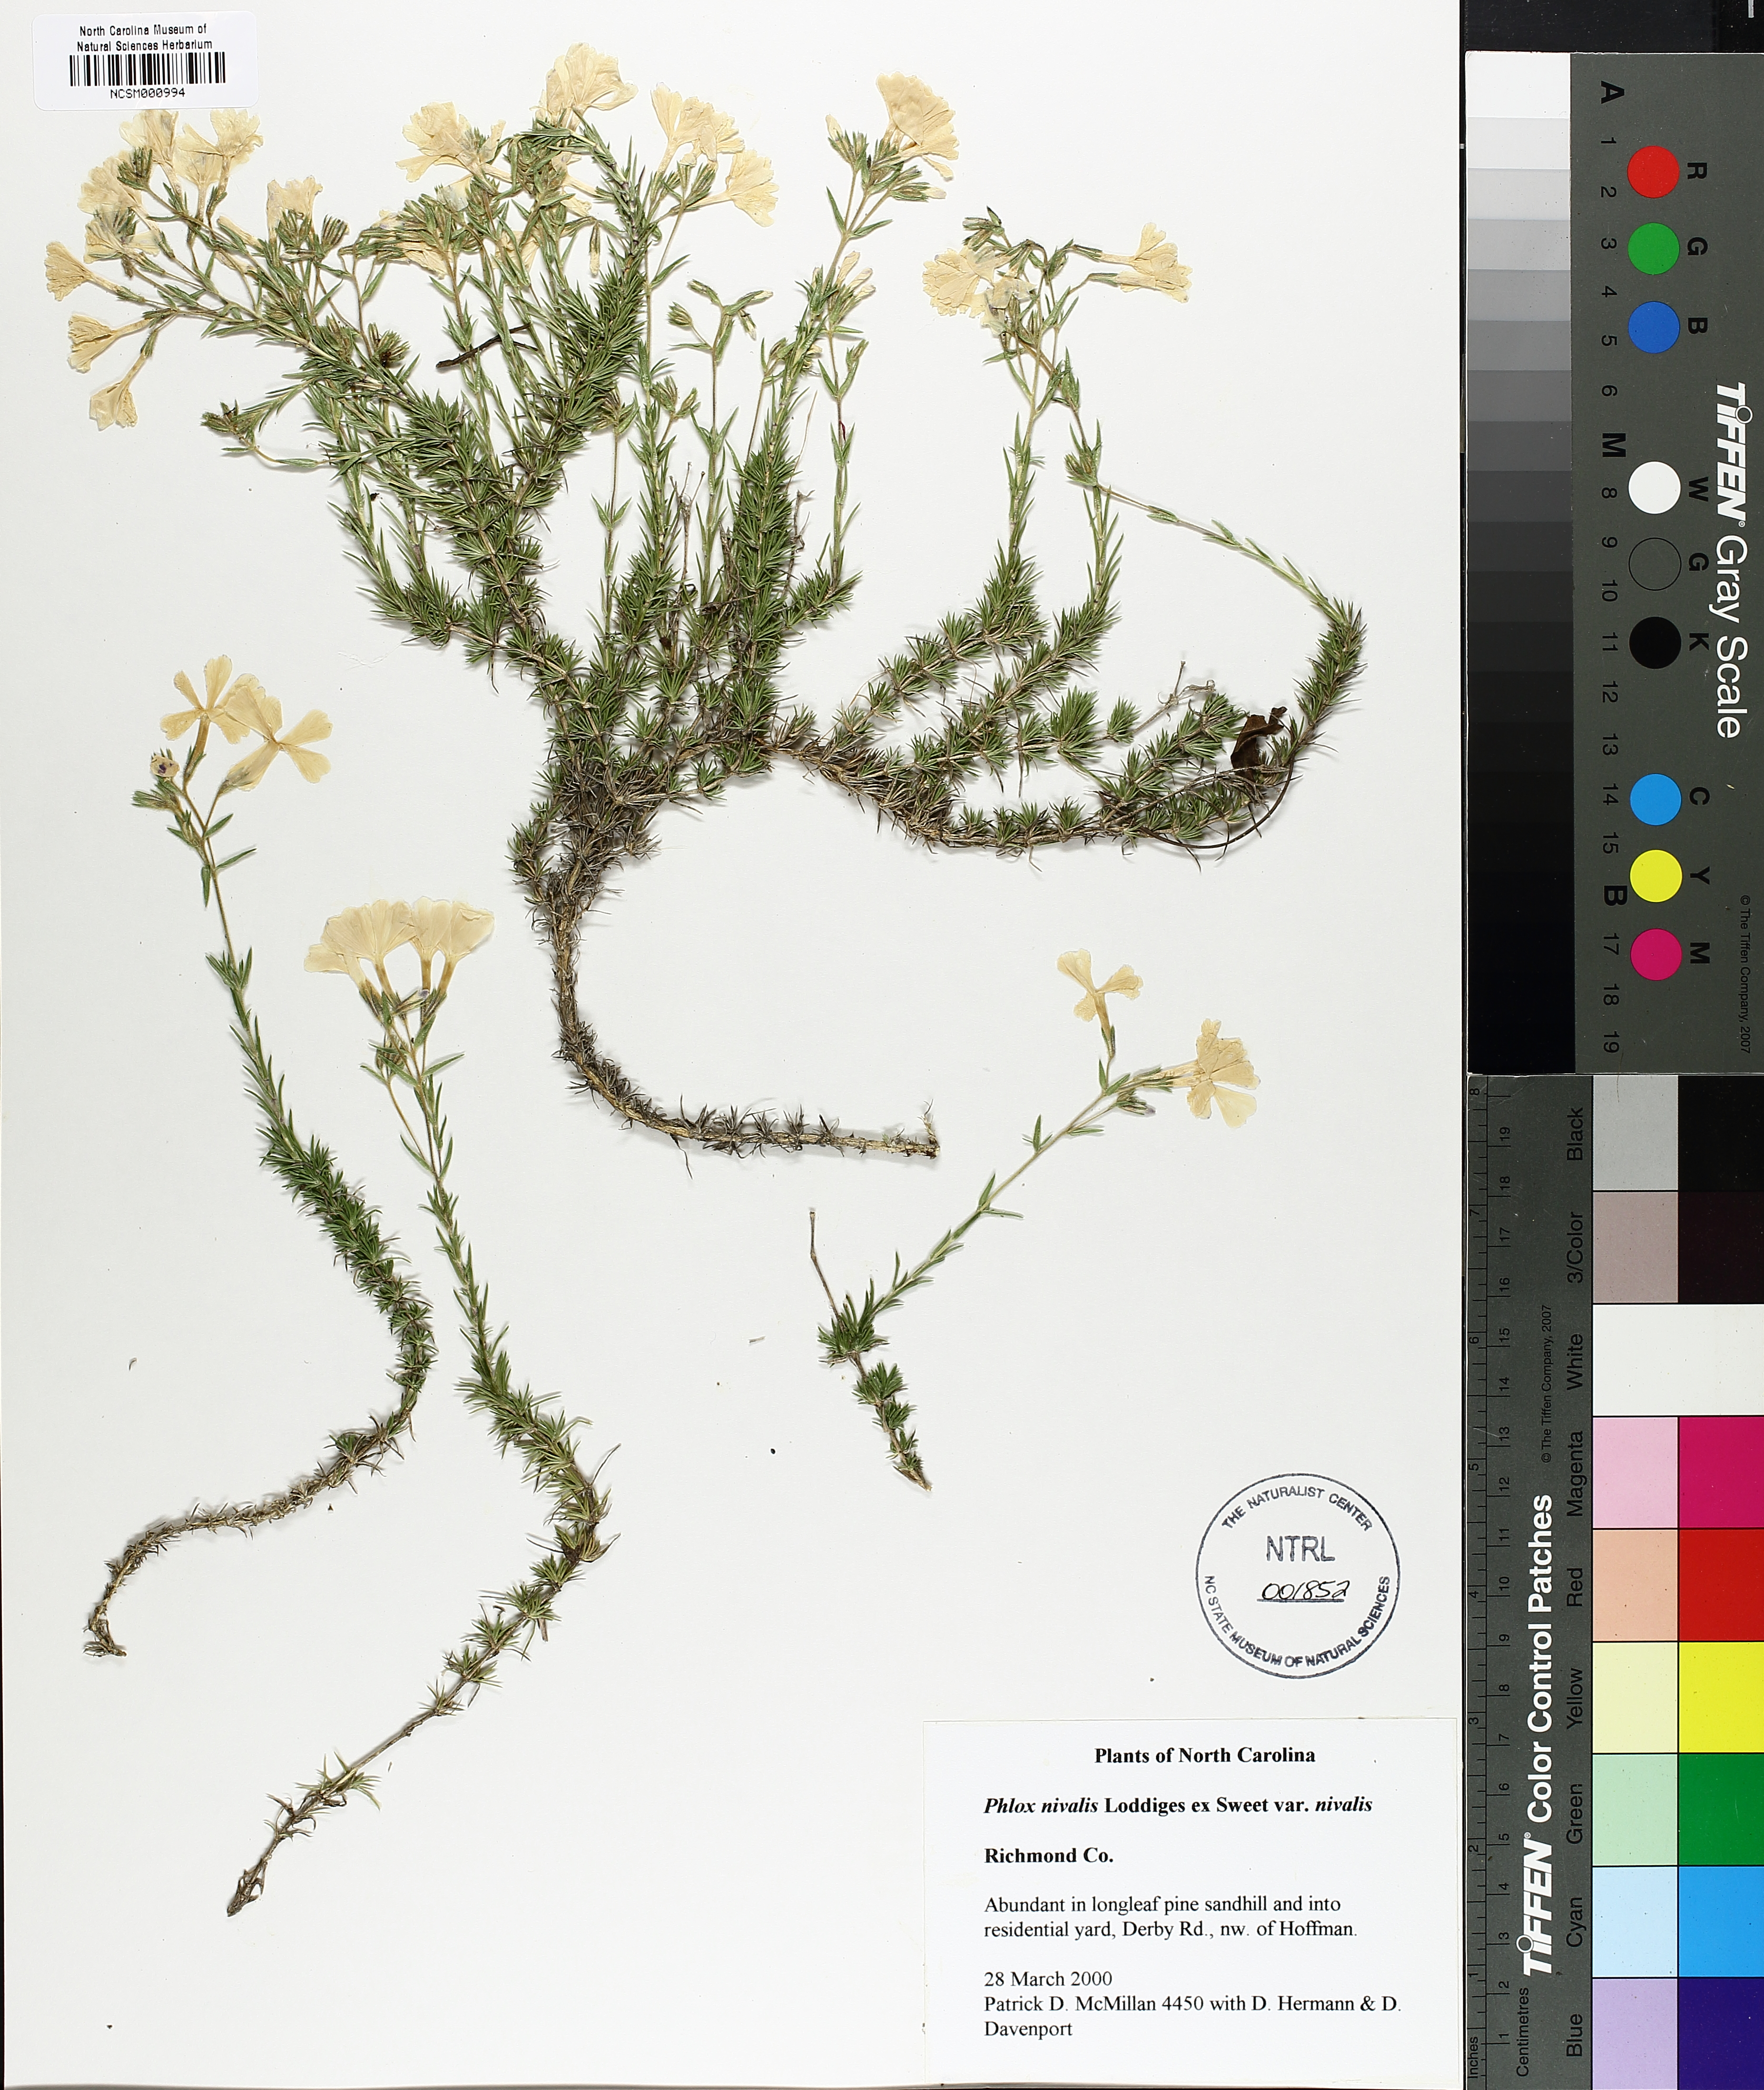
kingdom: Plantae
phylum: Tracheophyta
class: Magnoliopsida
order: Ericales
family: Polemoniaceae
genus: Phlox
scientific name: Phlox nivalis
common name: Trailing phlox
